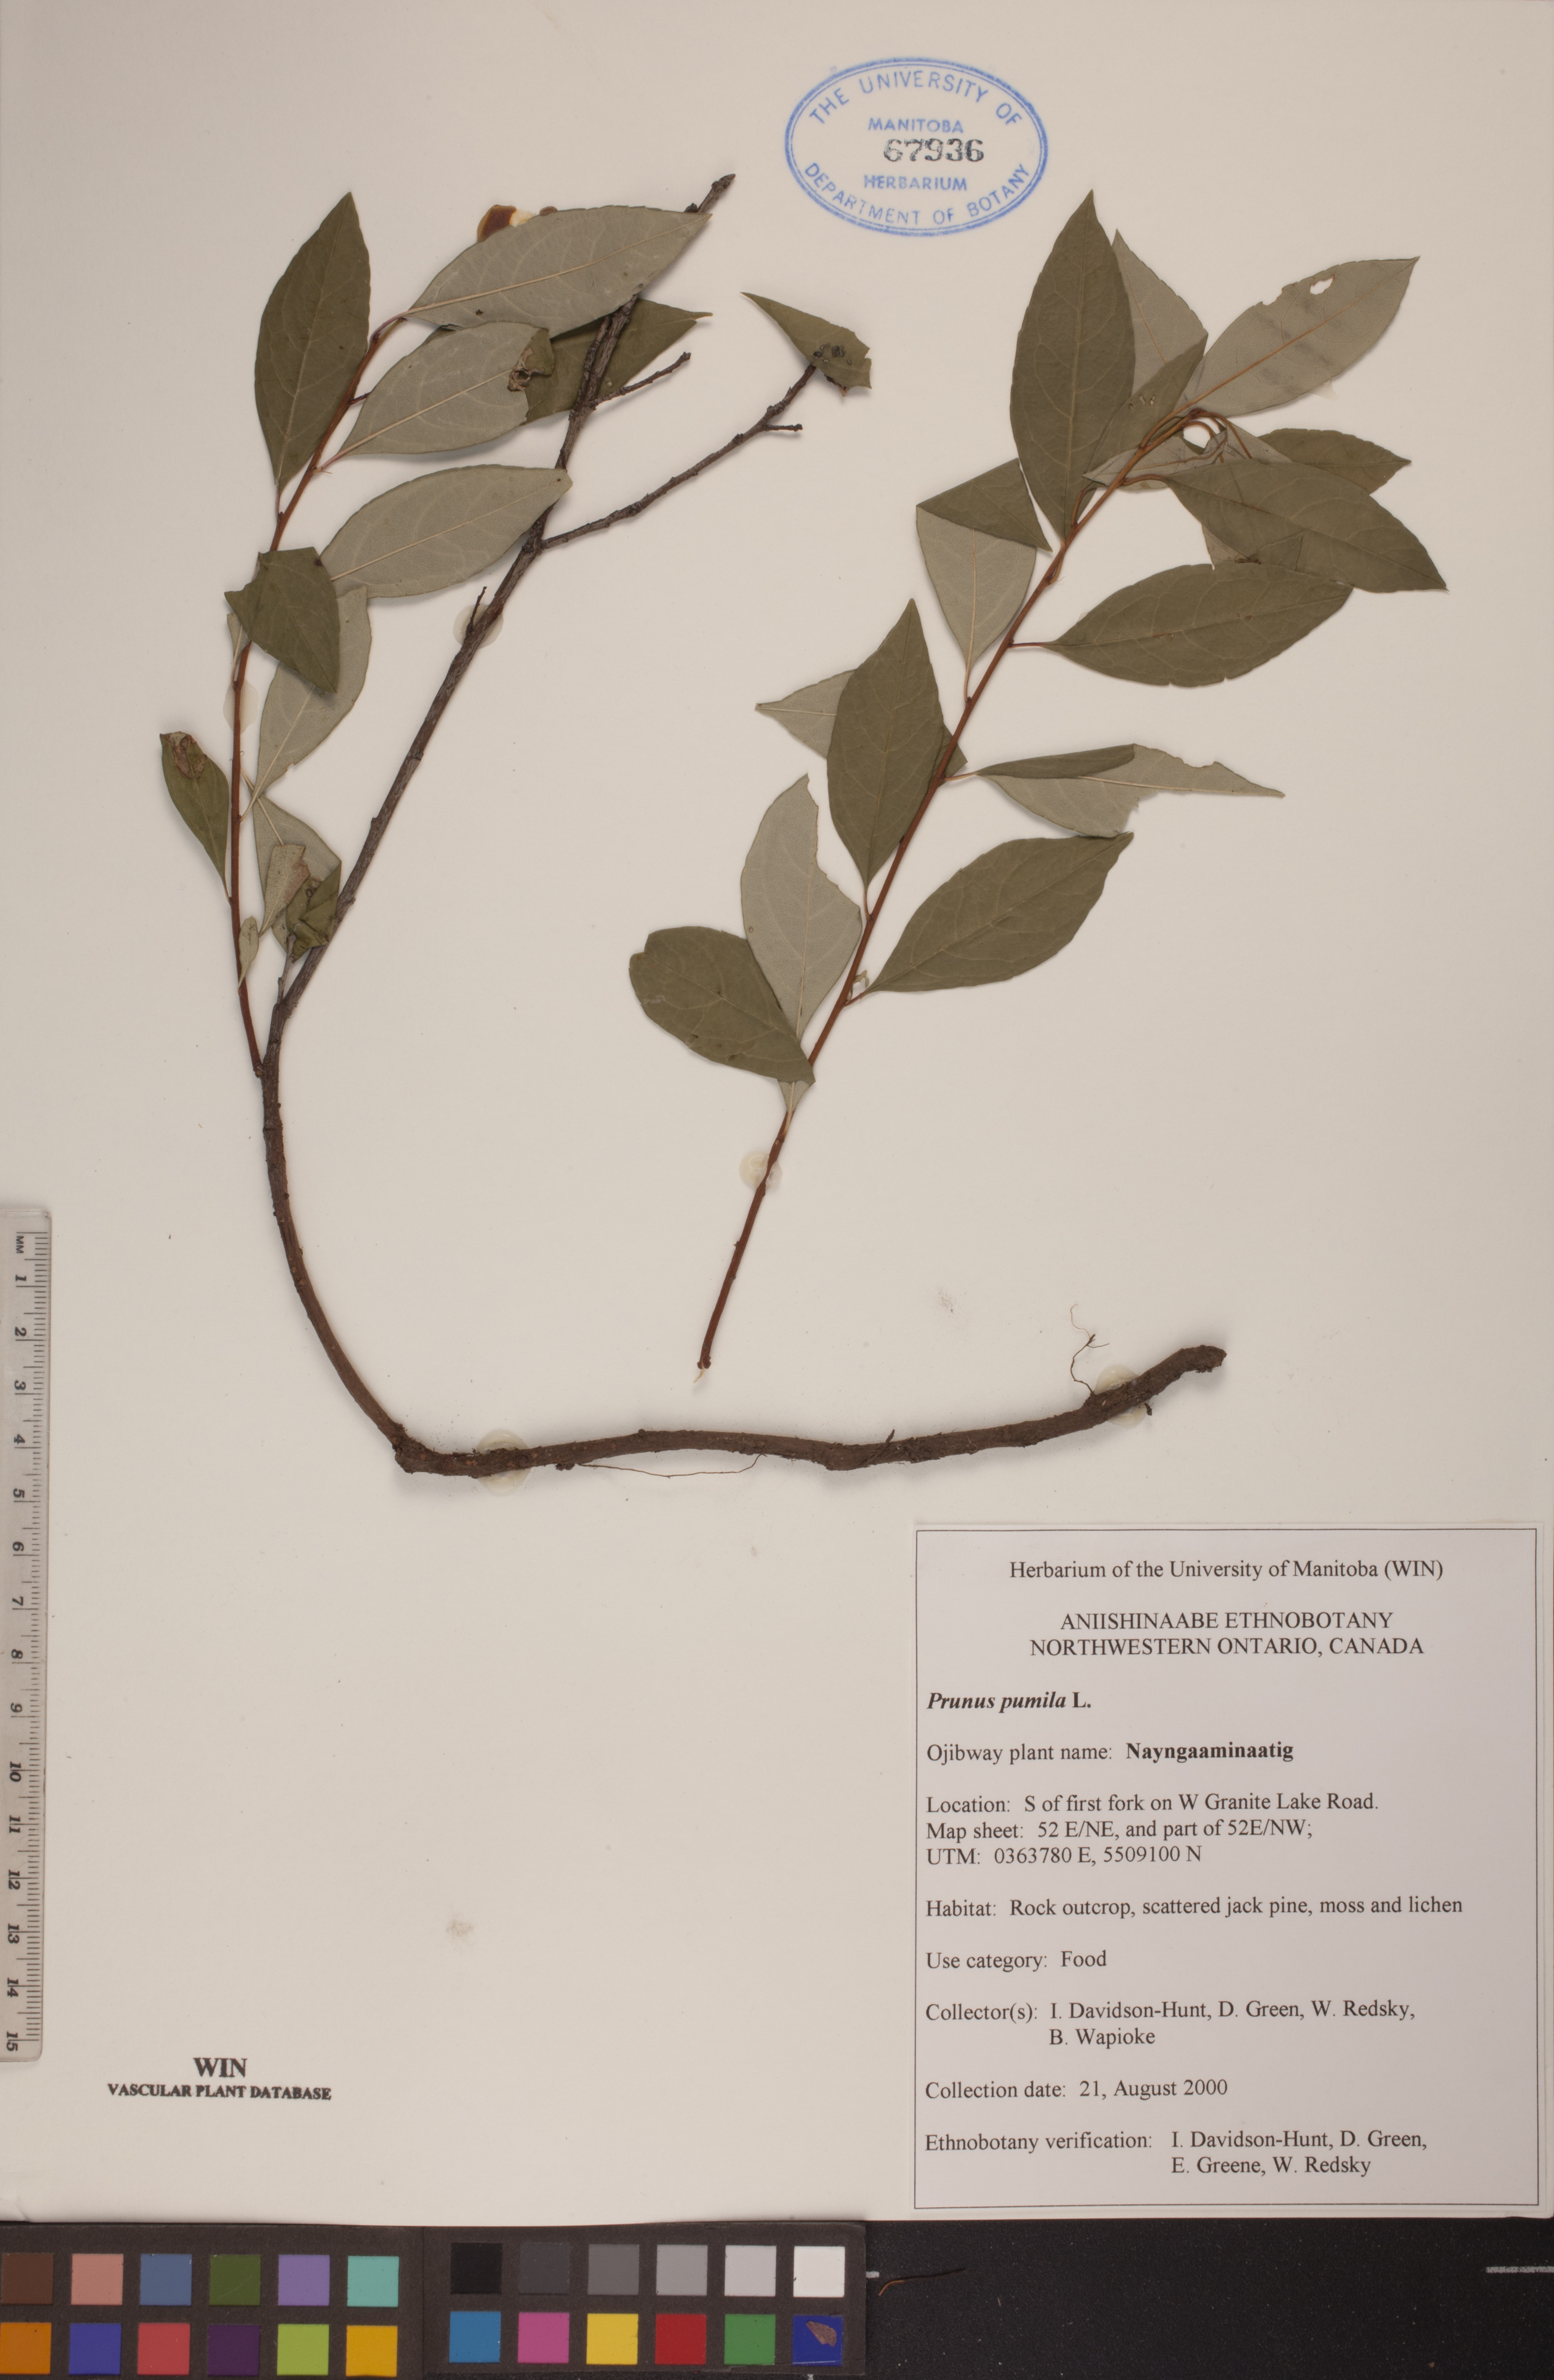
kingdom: Plantae
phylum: Tracheophyta
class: Magnoliopsida
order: Rosales
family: Rosaceae
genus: Prunus
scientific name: Prunus pumila
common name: Dwarf cherry
